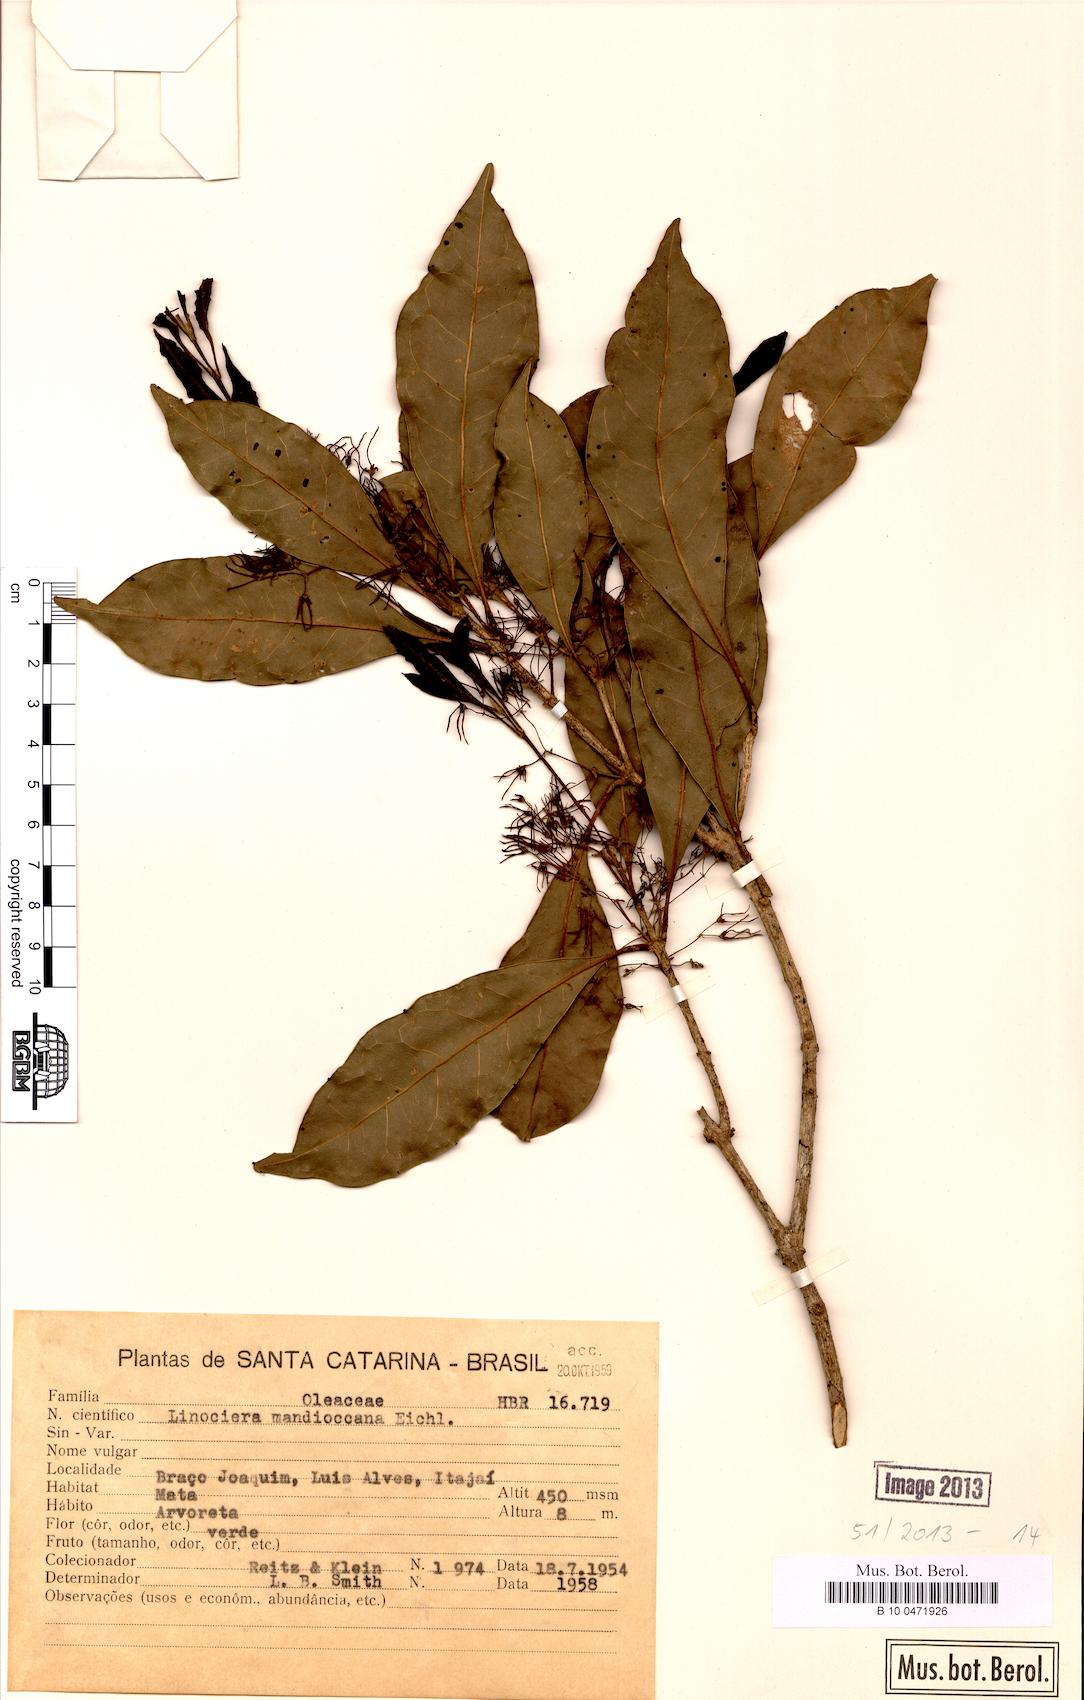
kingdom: Plantae
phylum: Tracheophyta
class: Magnoliopsida
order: Lamiales
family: Oleaceae
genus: Chionanthus
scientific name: Chionanthus filiformis
